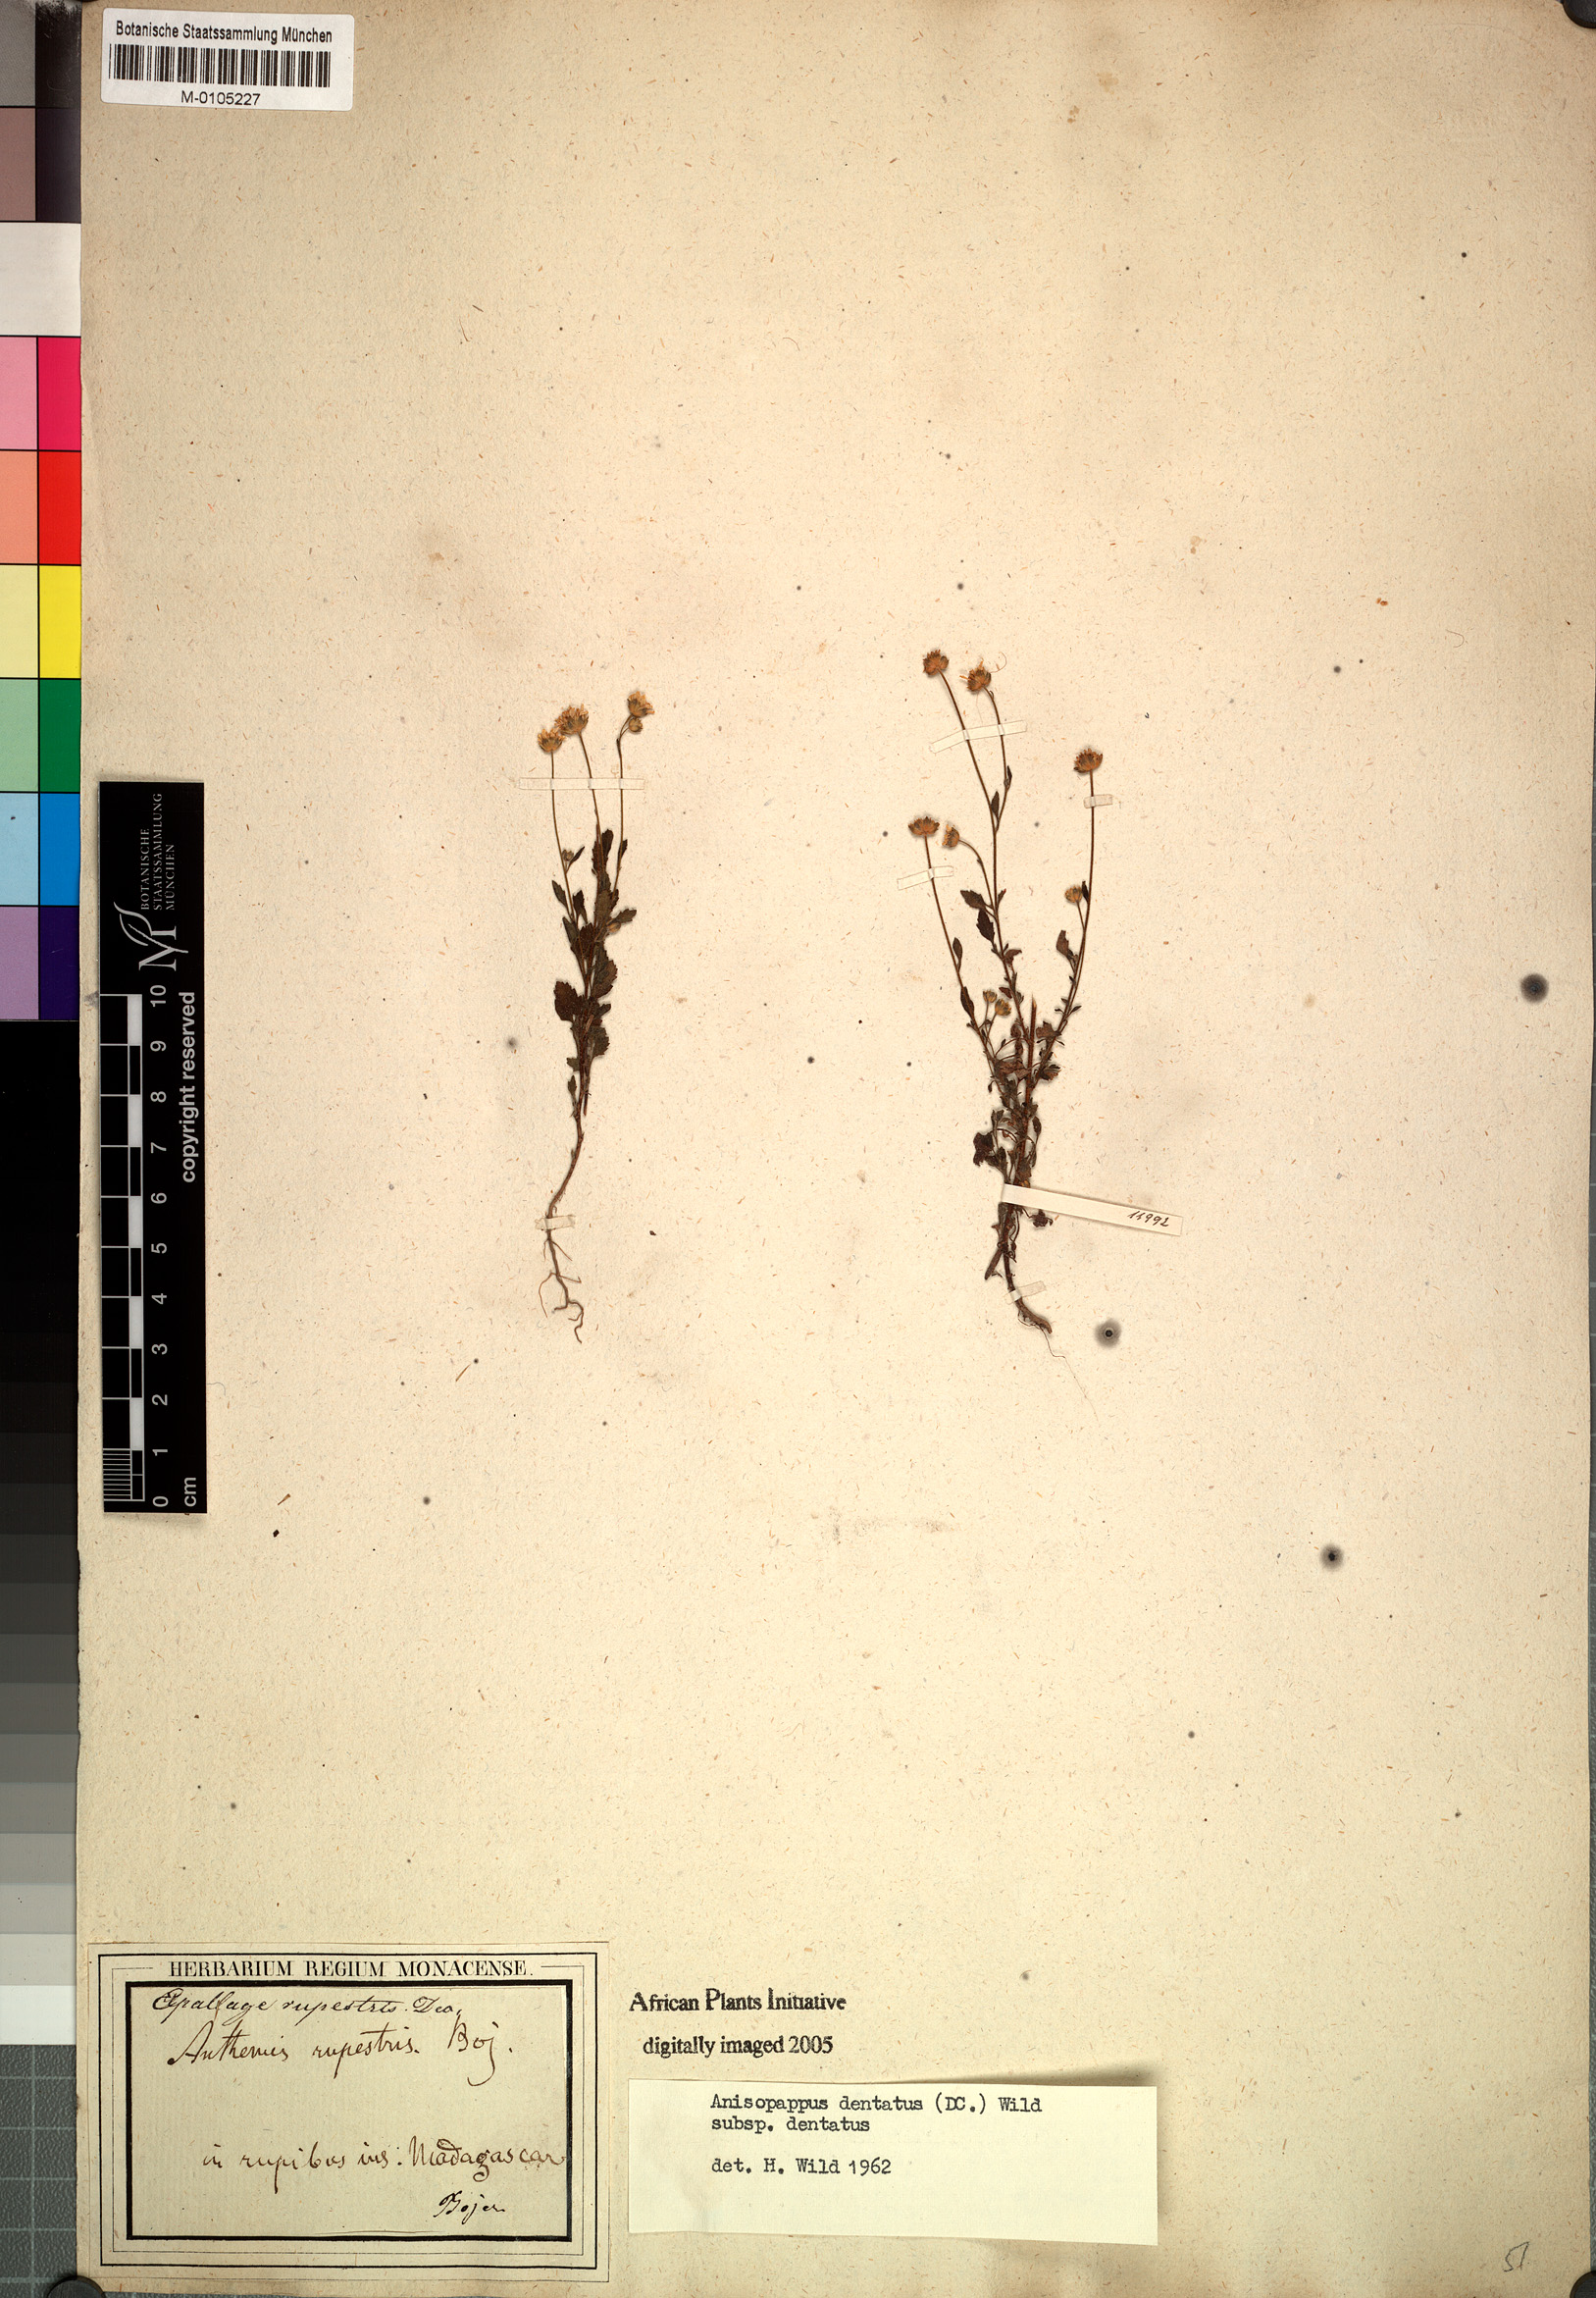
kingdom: Plantae
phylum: Tracheophyta
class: Magnoliopsida
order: Asterales
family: Asteraceae
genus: Anisopappus
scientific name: Anisopappus africanus
